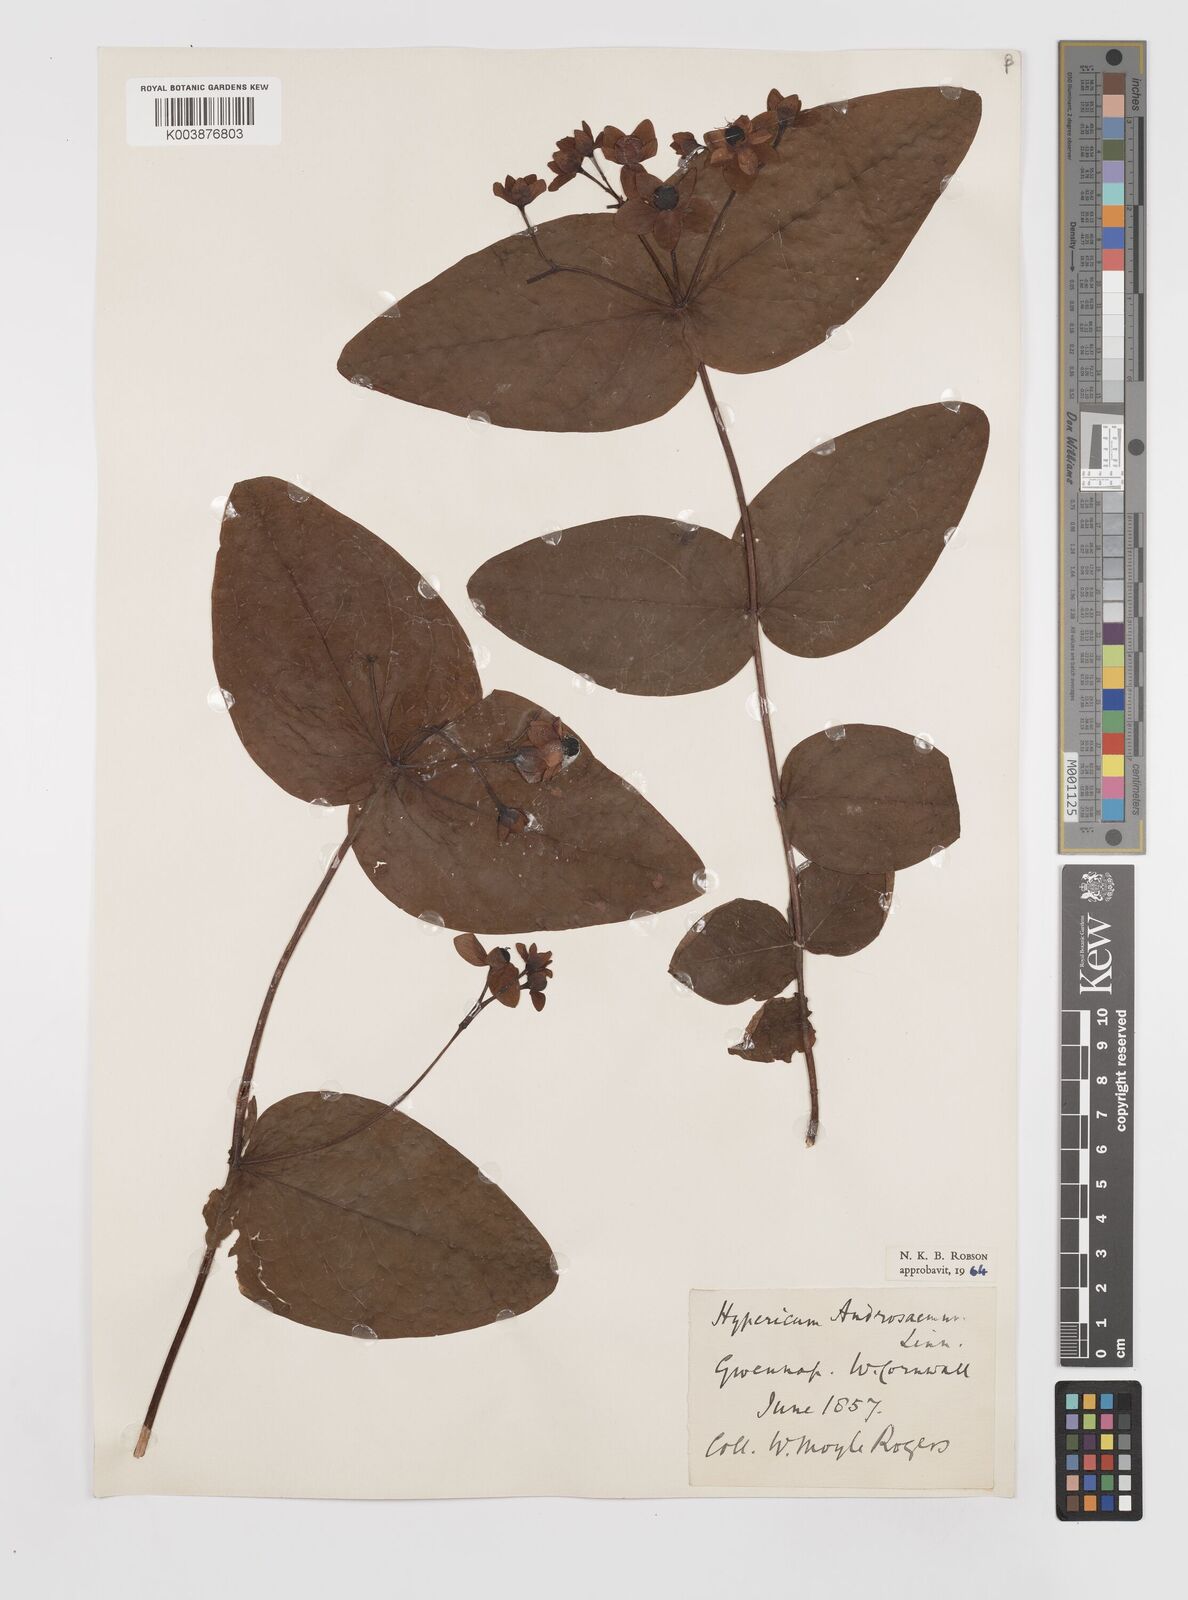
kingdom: Plantae
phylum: Tracheophyta
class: Magnoliopsida
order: Malpighiales
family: Hypericaceae
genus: Hypericum
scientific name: Hypericum androsaemum
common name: Sweet-amber
